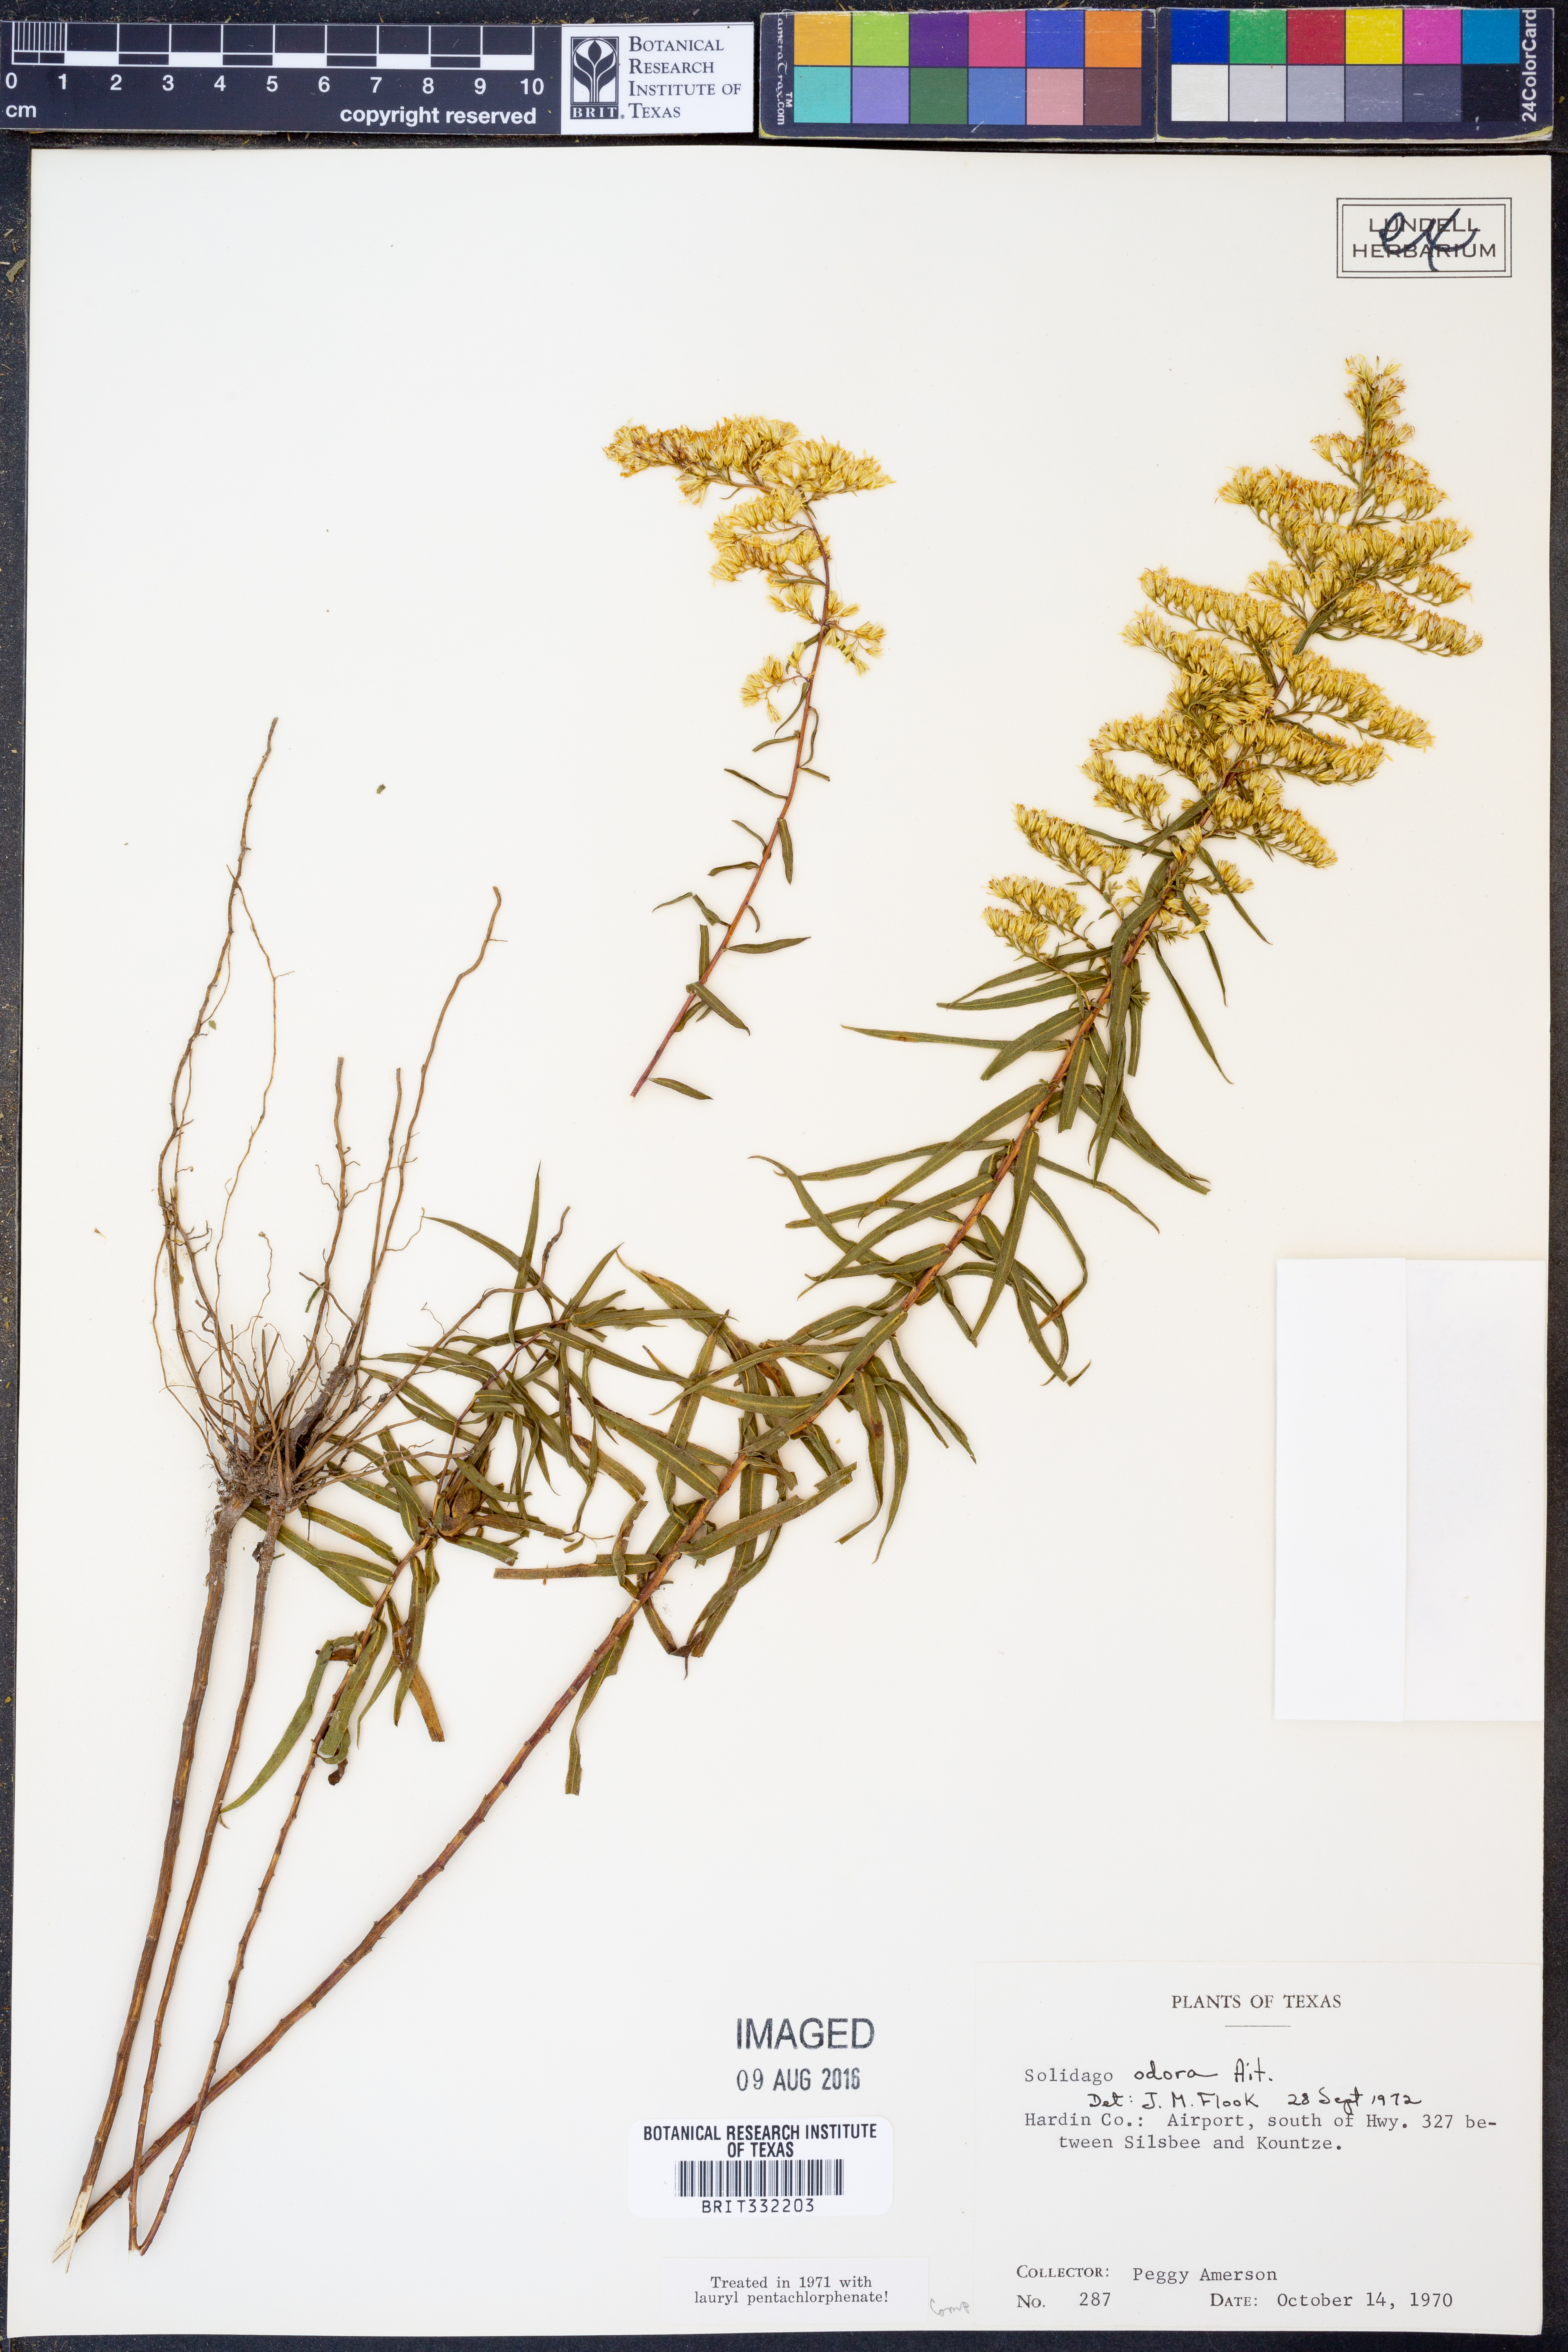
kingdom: Plantae
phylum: Tracheophyta
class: Magnoliopsida
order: Asterales
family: Asteraceae
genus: Solidago
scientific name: Solidago odora
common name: Anise-scented goldenrod
